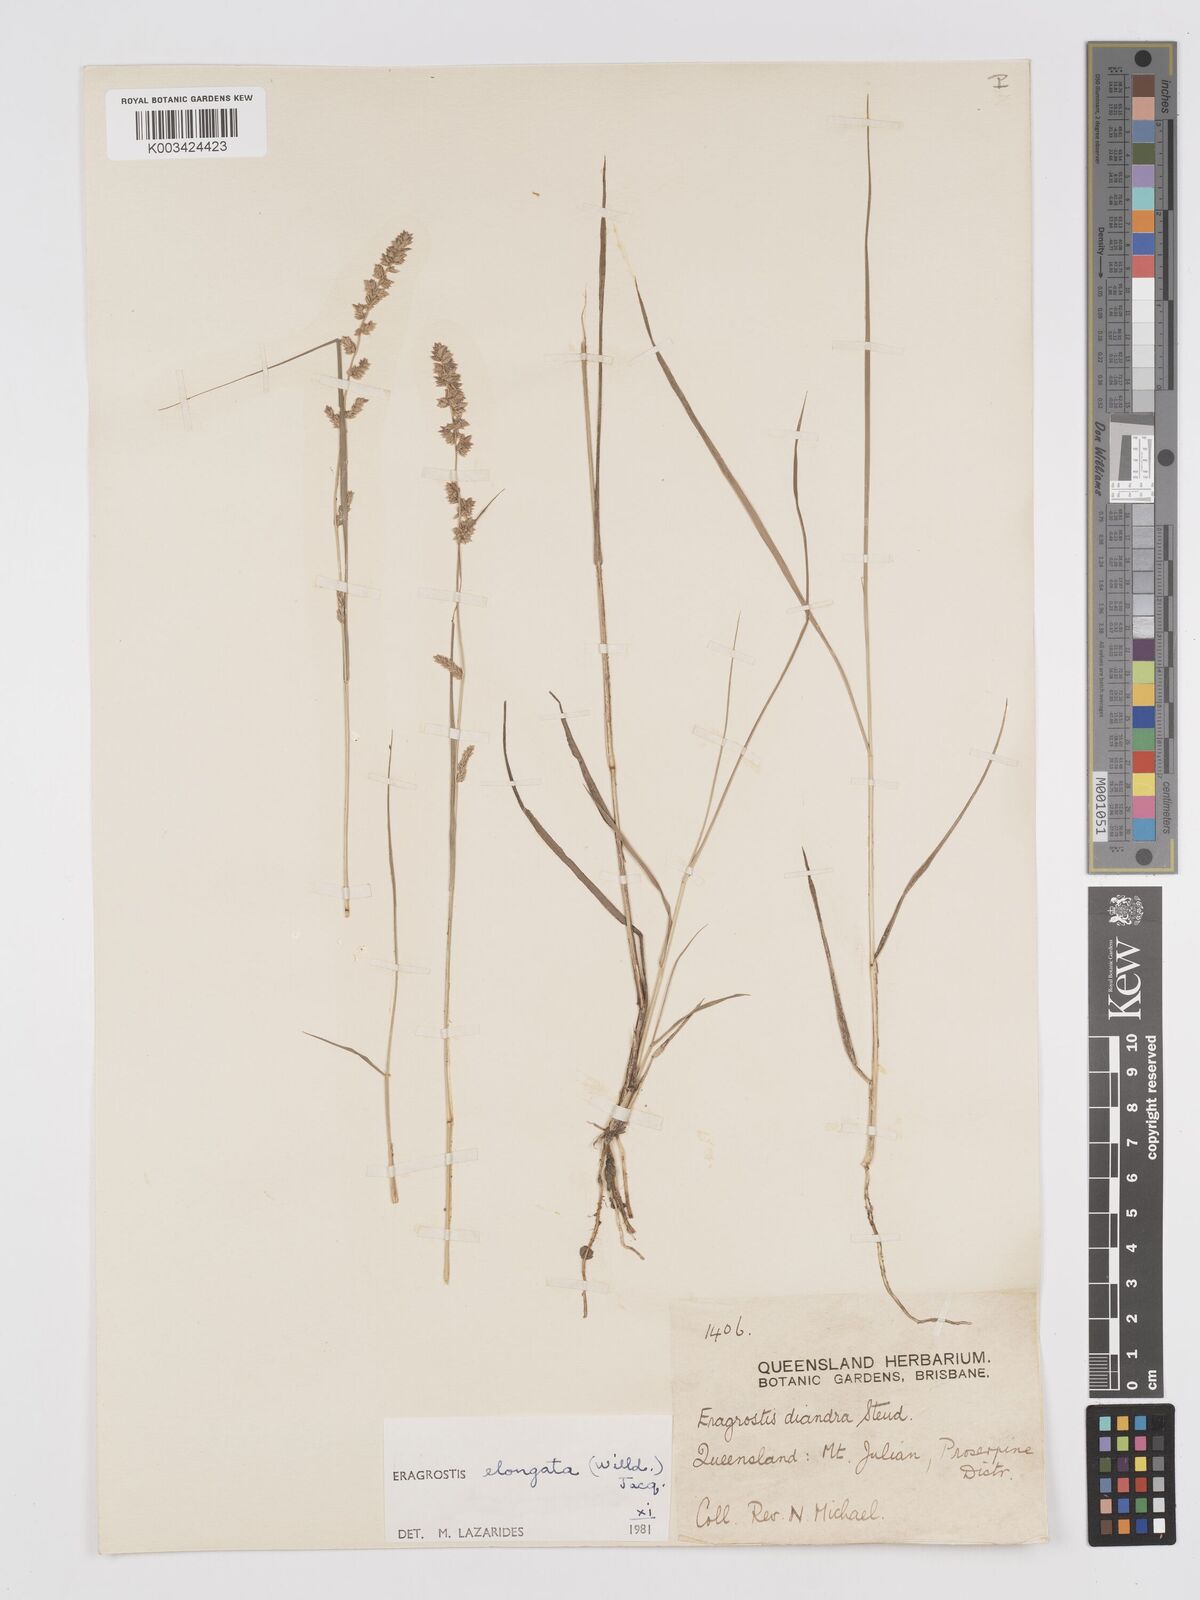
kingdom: Plantae
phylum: Tracheophyta
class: Liliopsida
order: Poales
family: Poaceae
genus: Eragrostis
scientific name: Eragrostis elongata
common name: Long lovegrass
